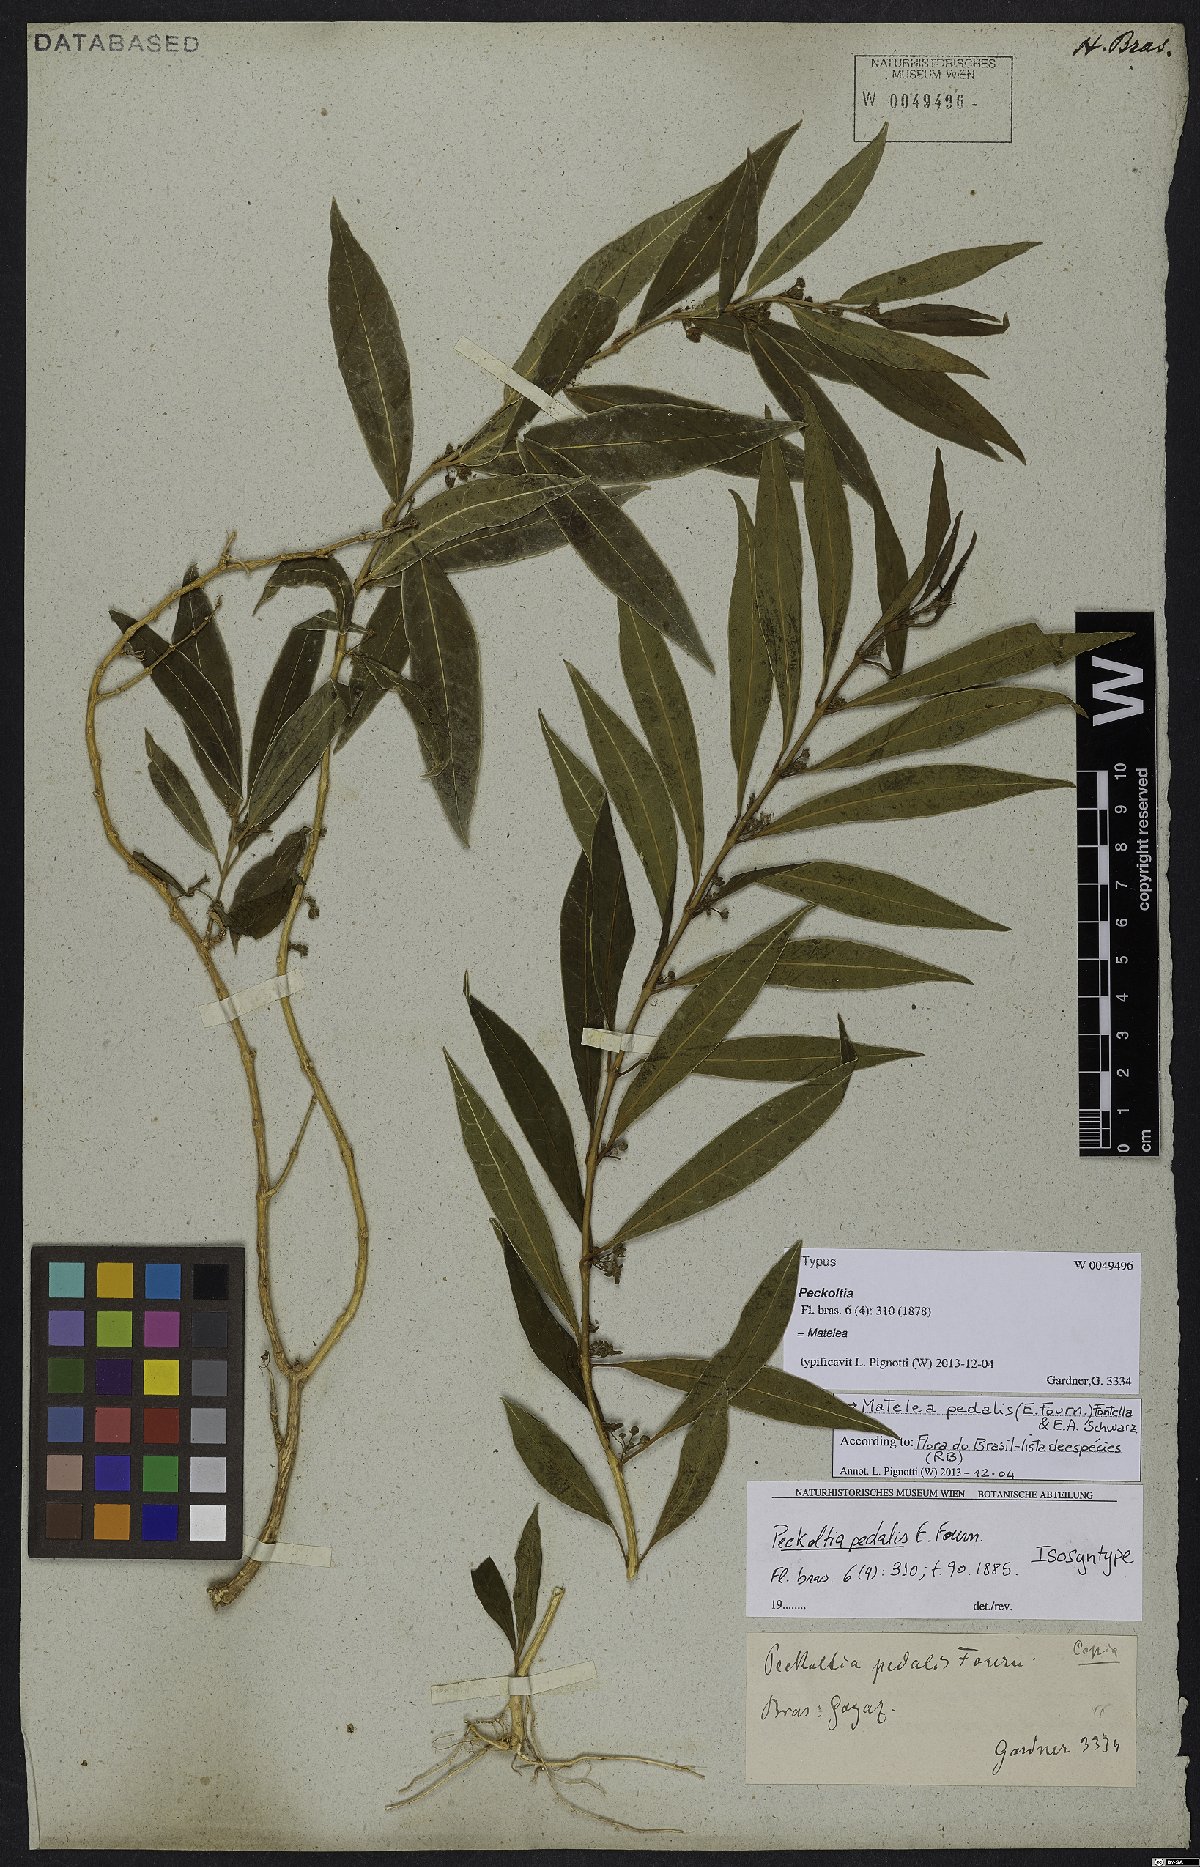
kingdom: Plantae
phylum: Tracheophyta
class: Magnoliopsida
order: Gentianales
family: Apocynaceae
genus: Matelea
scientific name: Matelea pedalis
